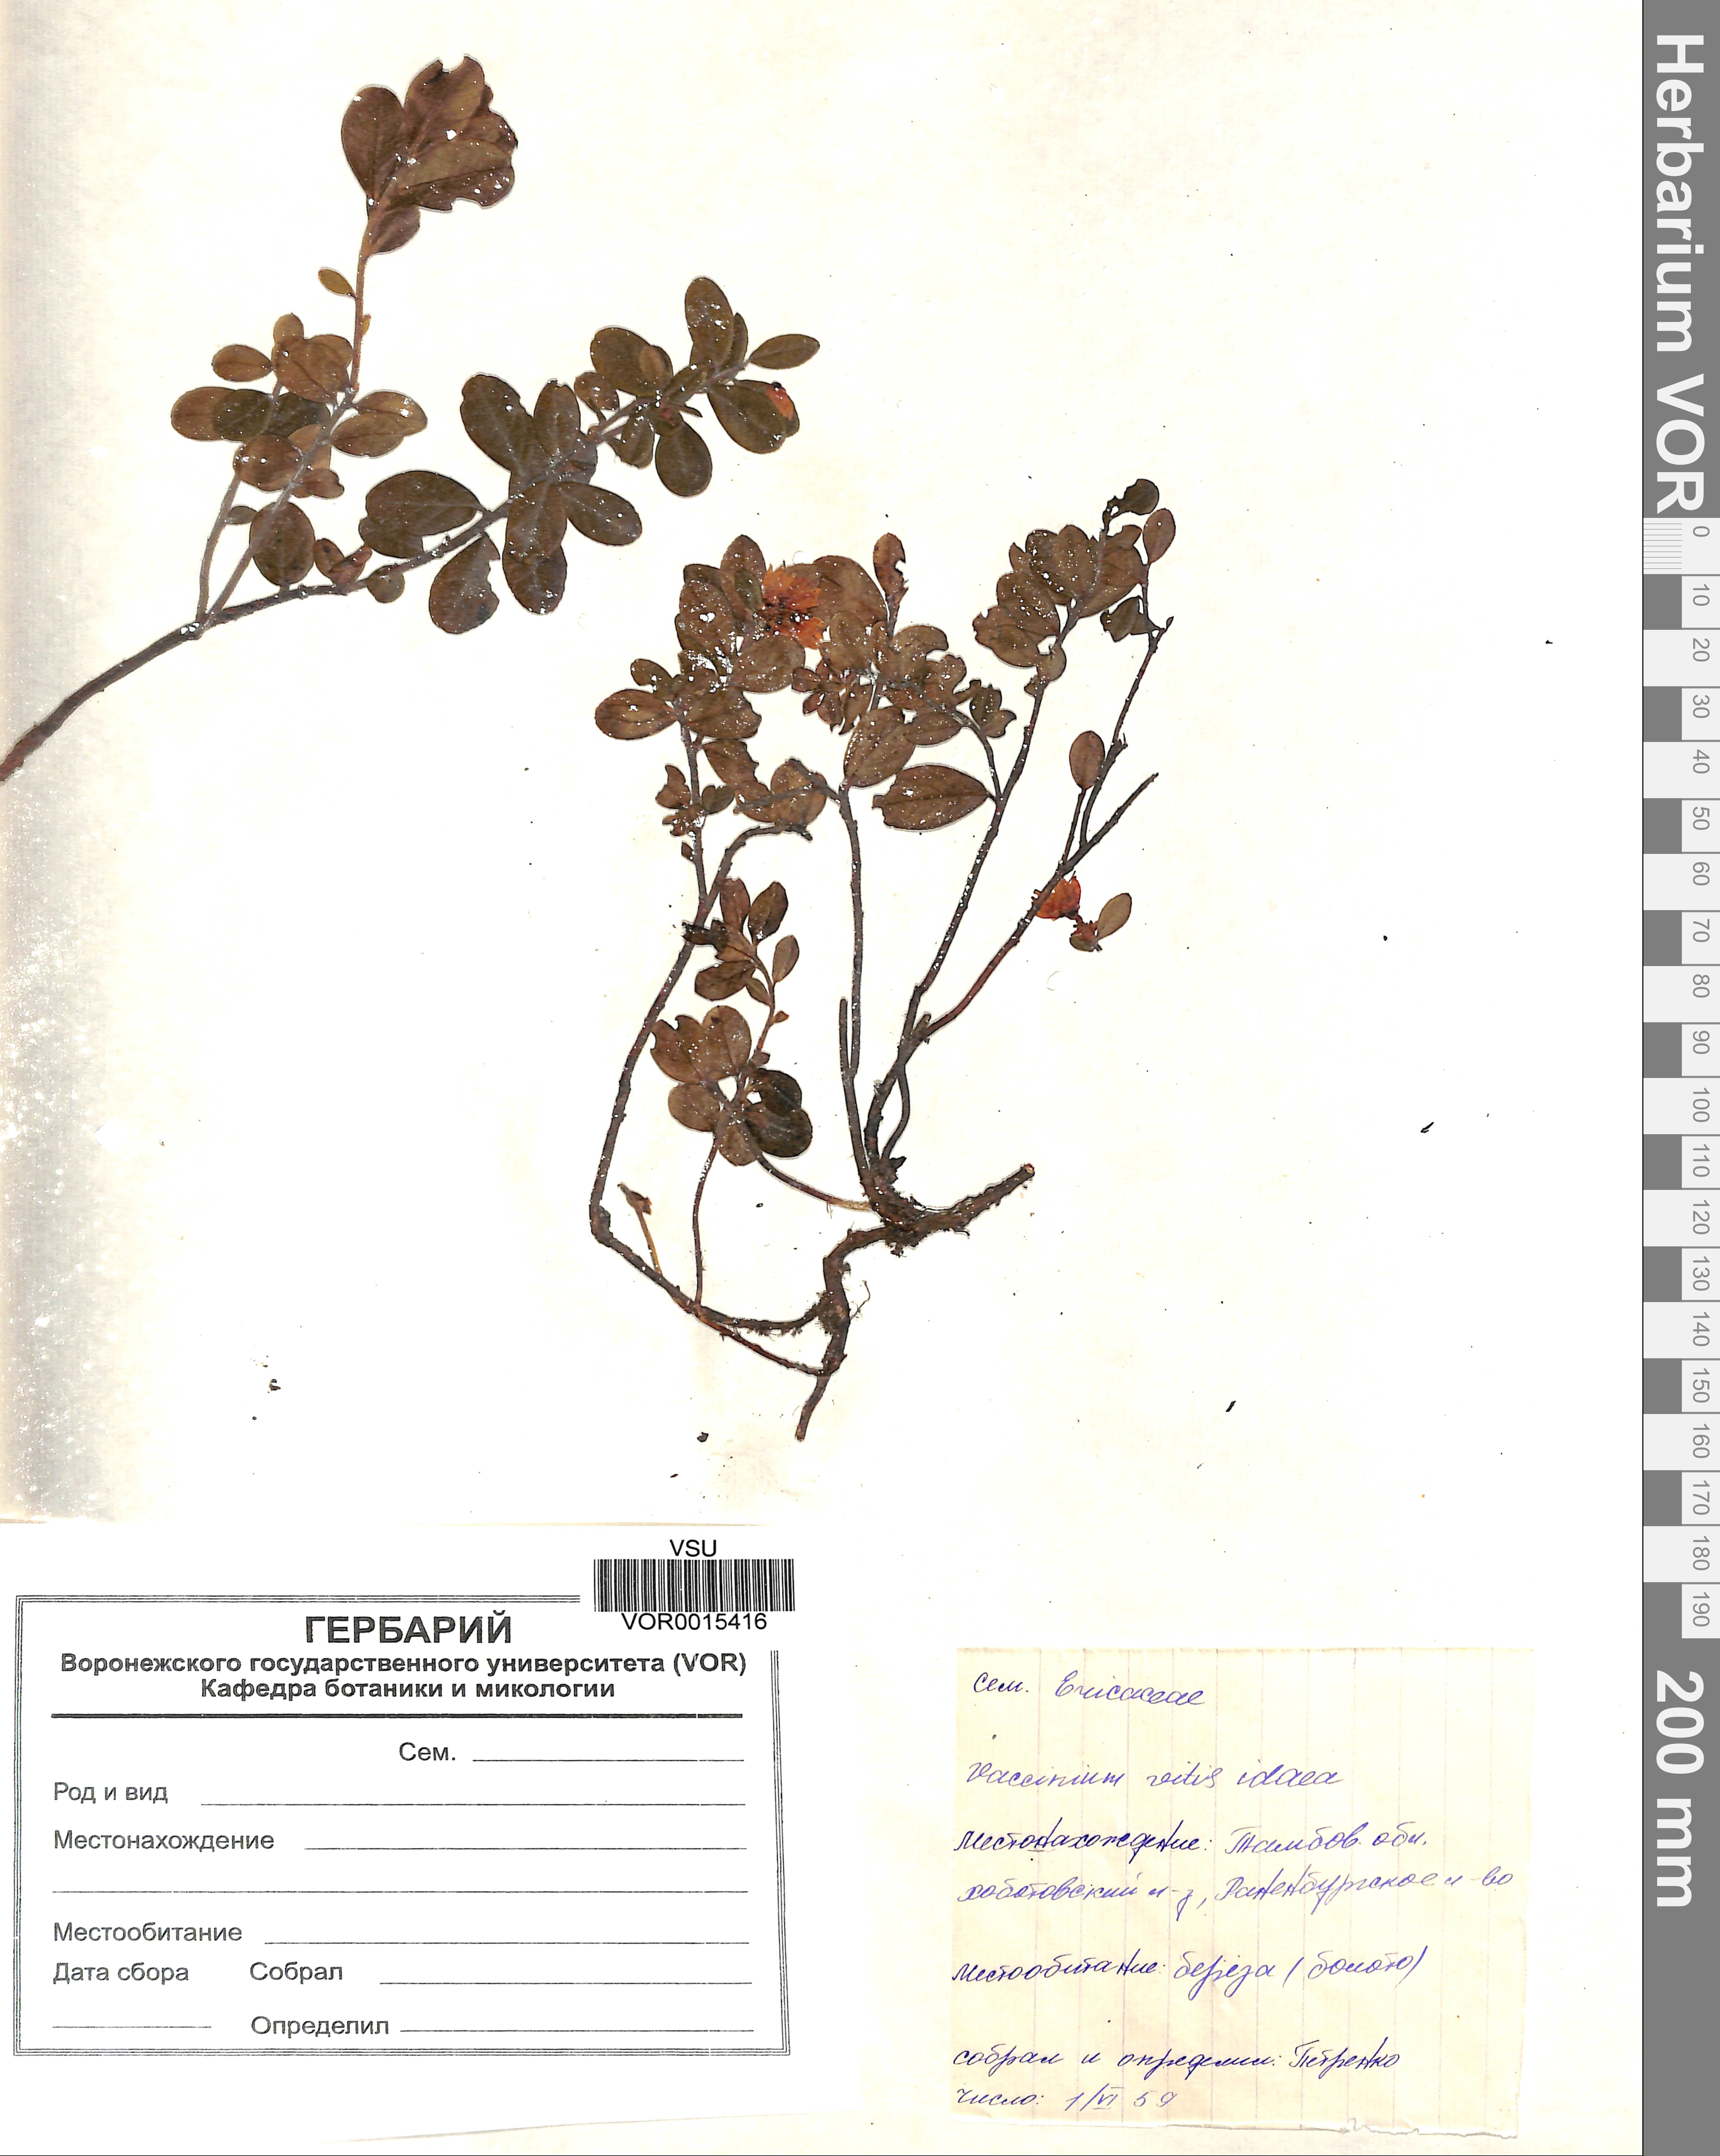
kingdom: Plantae
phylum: Tracheophyta
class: Magnoliopsida
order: Ericales
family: Ericaceae
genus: Vaccinium
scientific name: Vaccinium vitis-idaea
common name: Cowberry
